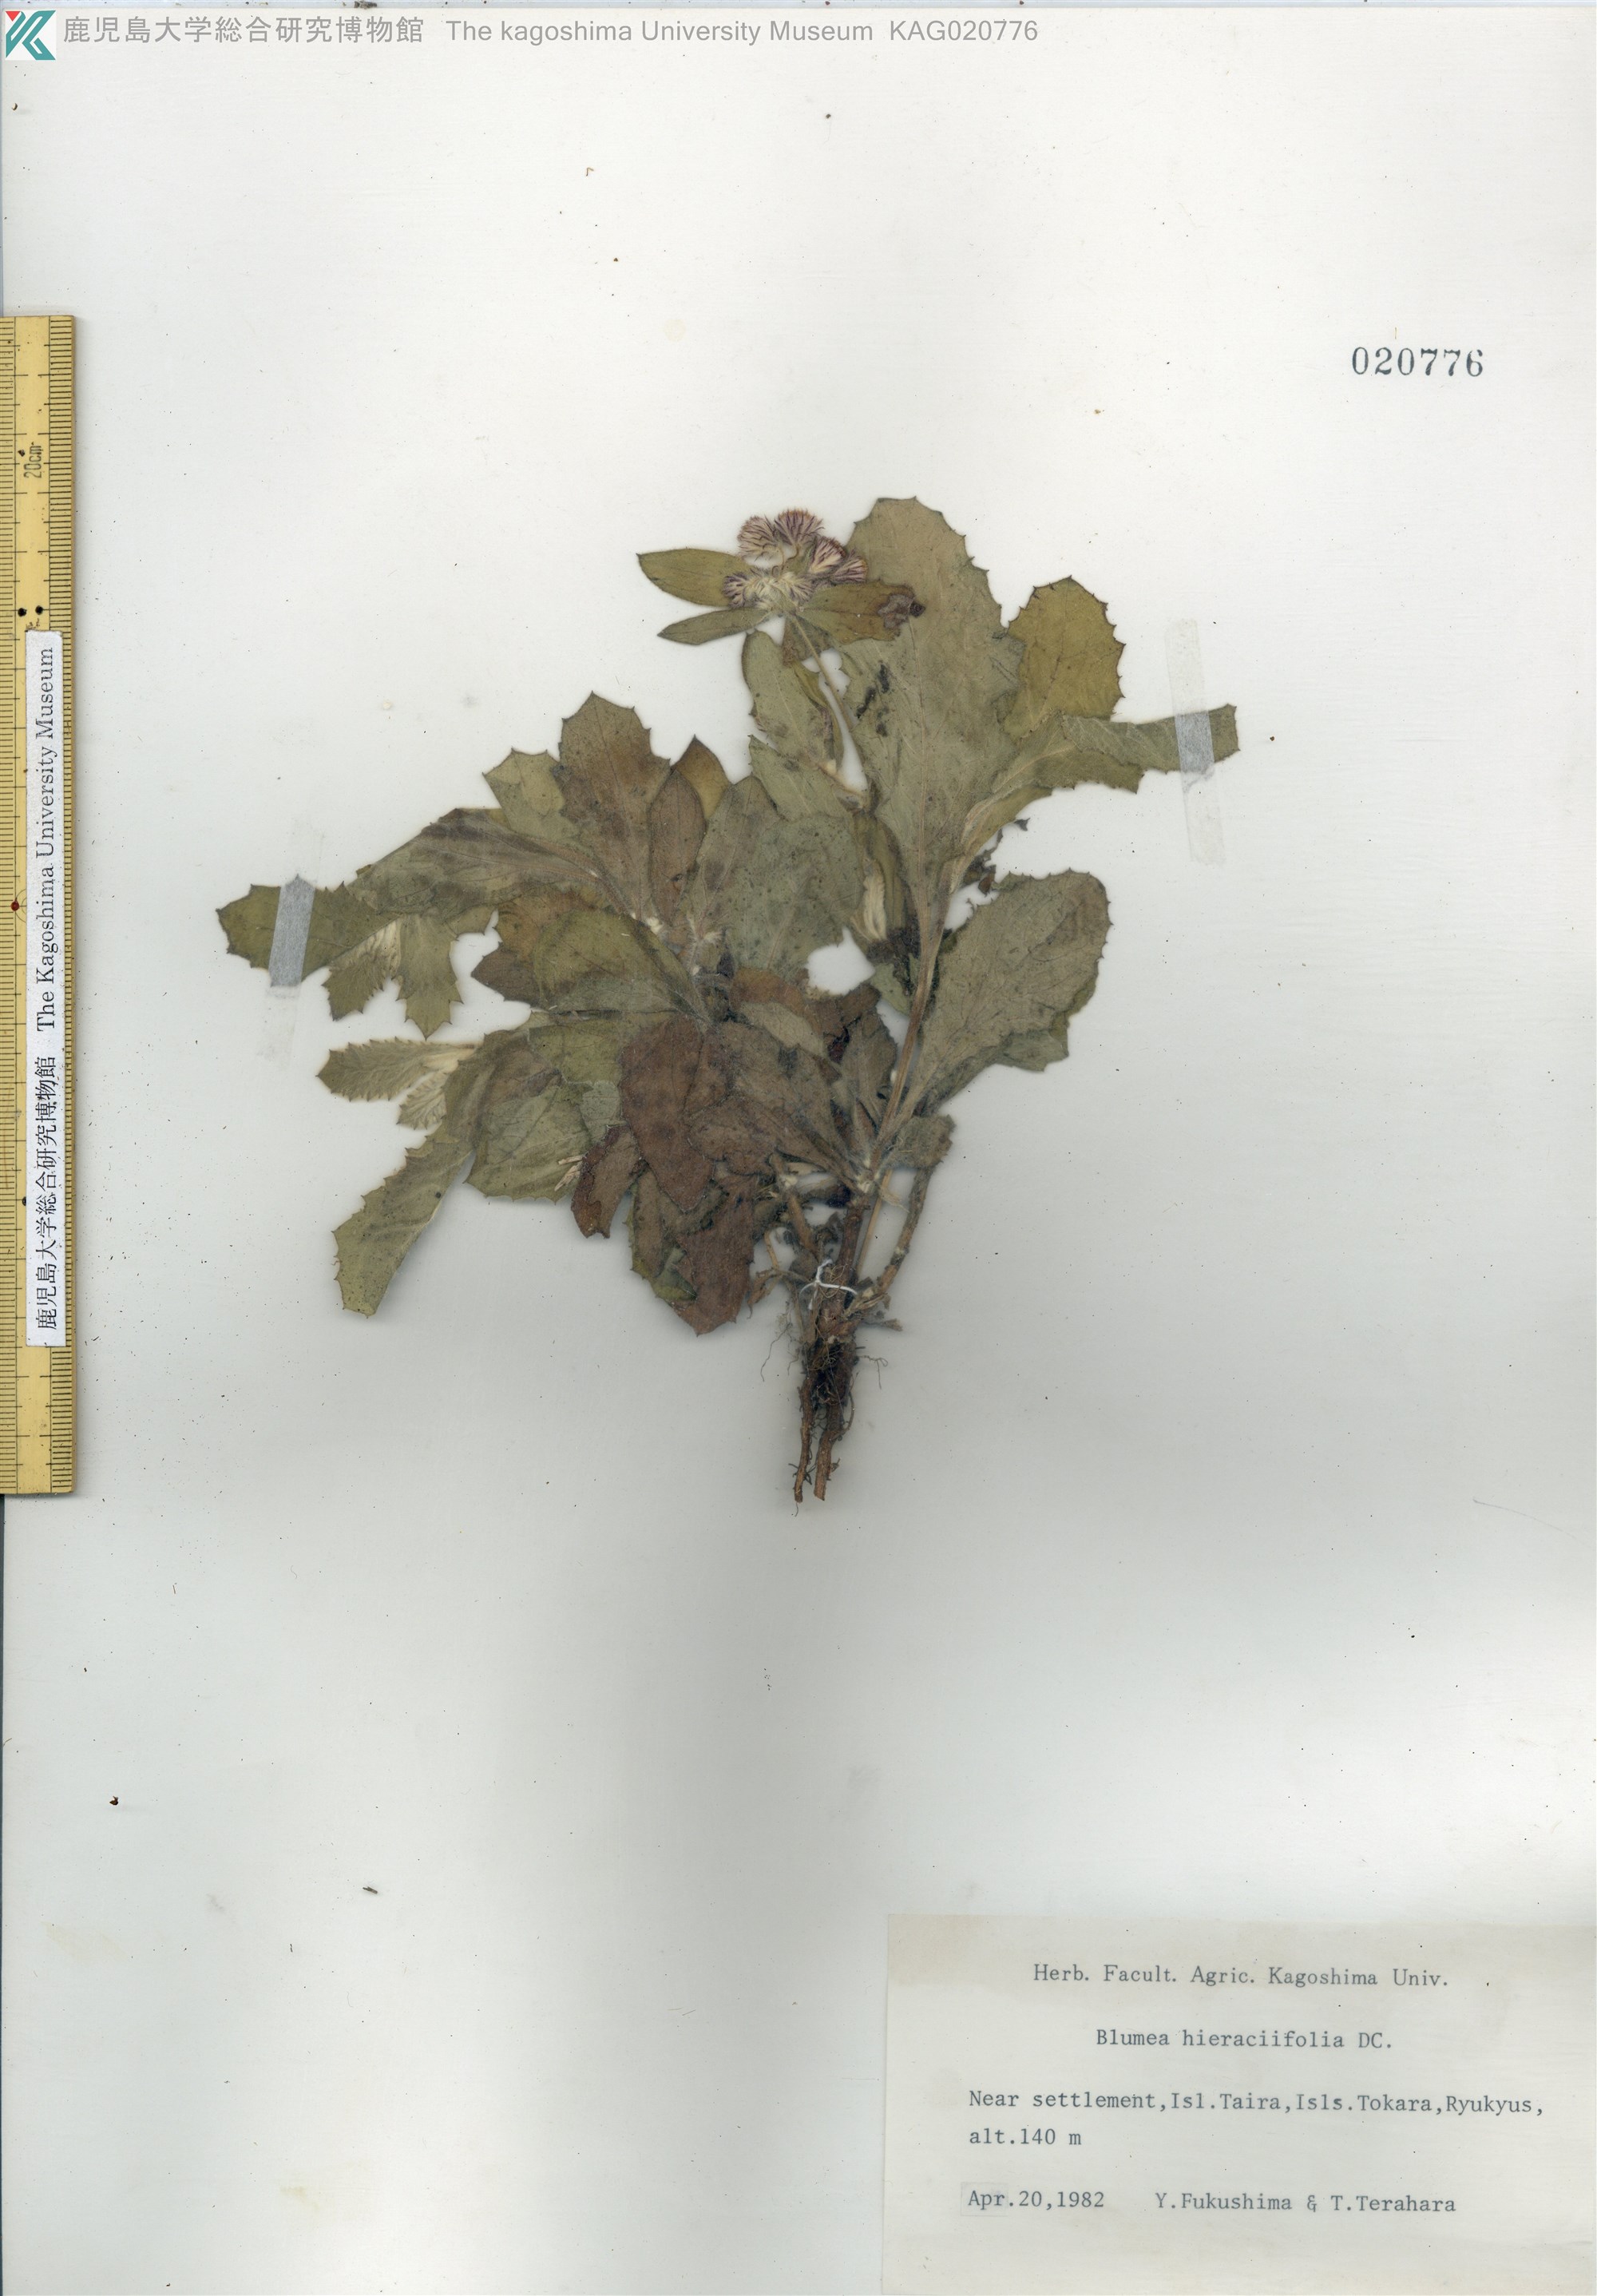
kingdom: Plantae
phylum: Tracheophyta
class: Magnoliopsida
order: Asterales
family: Asteraceae
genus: Blumea
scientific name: Blumea lacera
